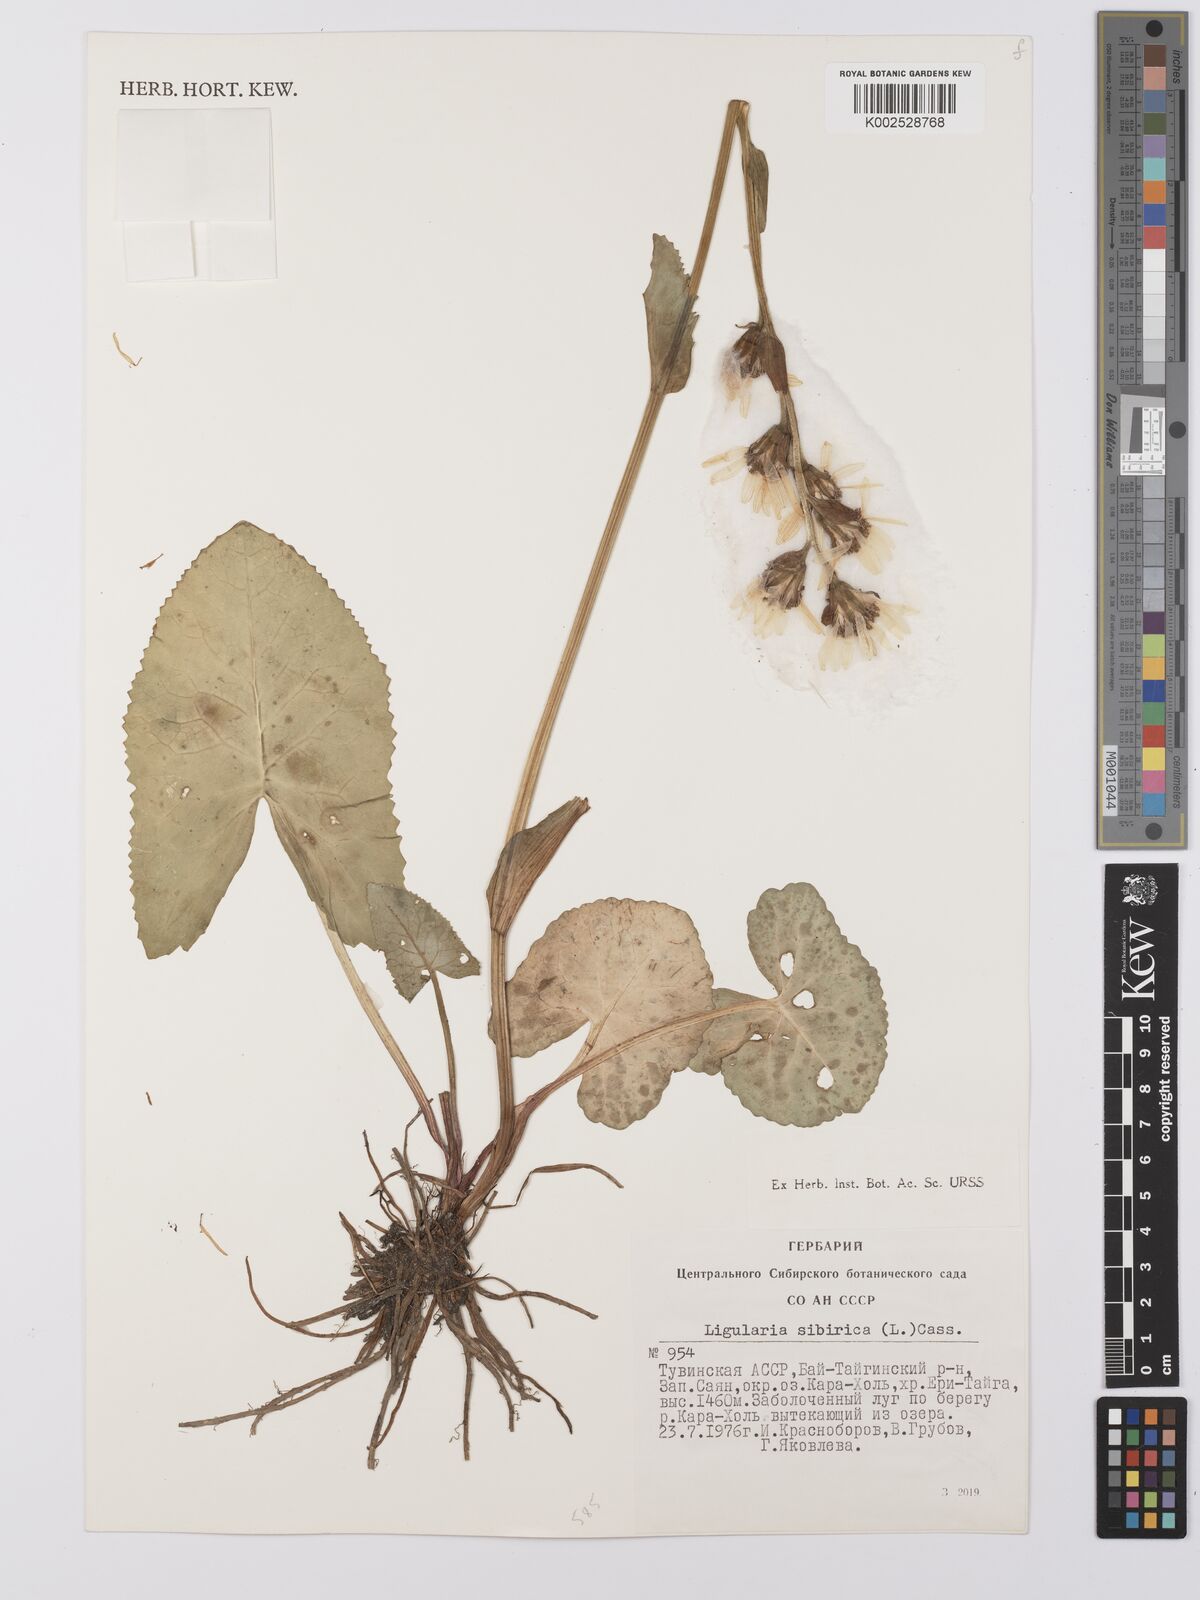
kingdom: Plantae
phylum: Tracheophyta
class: Magnoliopsida
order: Asterales
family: Asteraceae
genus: Ligularia
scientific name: Ligularia sibirica
